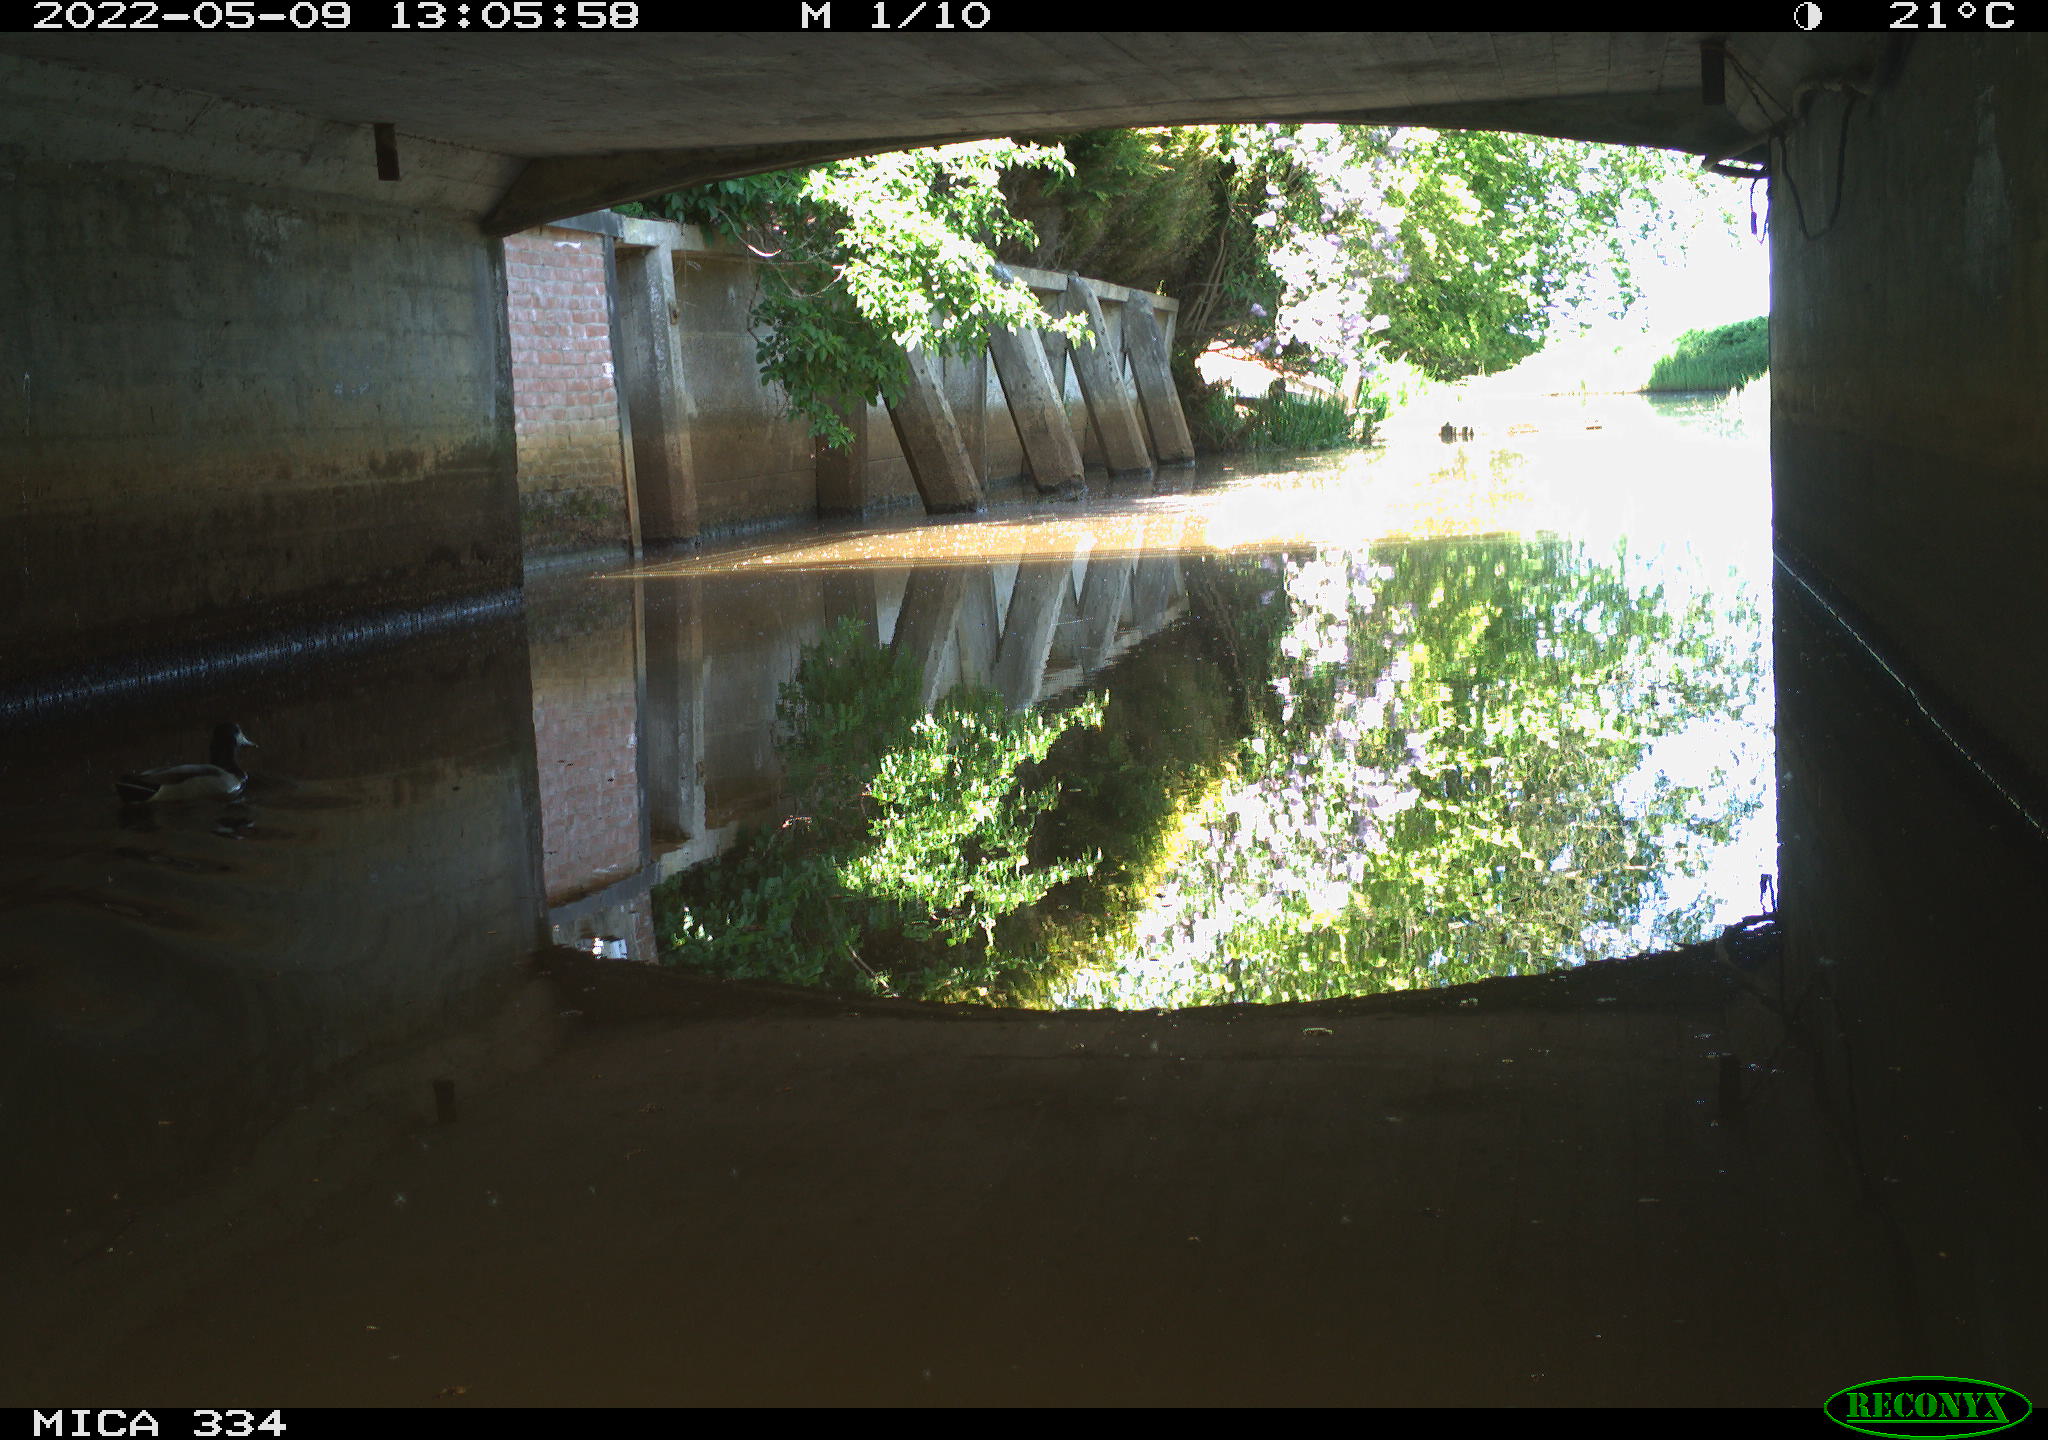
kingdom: Animalia
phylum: Chordata
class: Aves
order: Anseriformes
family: Anatidae
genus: Anas
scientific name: Anas platyrhynchos
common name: Mallard
